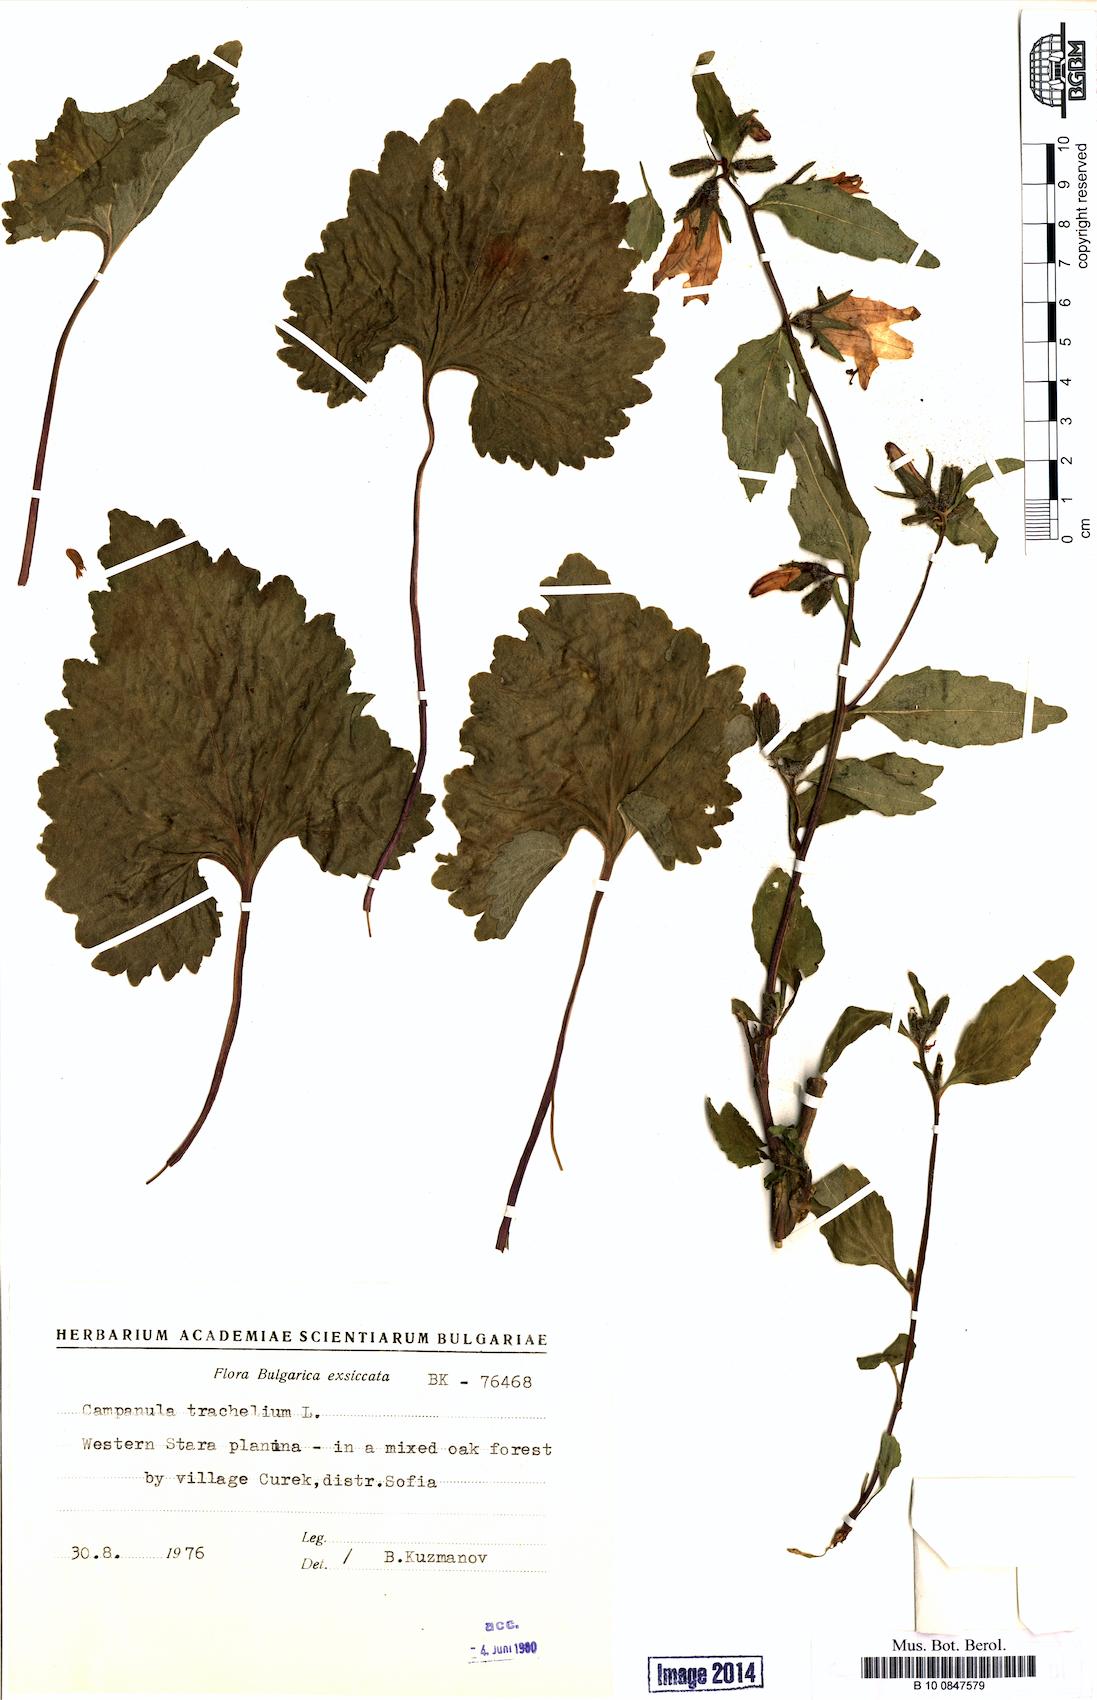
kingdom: Plantae
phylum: Tracheophyta
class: Magnoliopsida
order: Asterales
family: Campanulaceae
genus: Campanula
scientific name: Campanula trachelium
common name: Nettle-leaved bellflower
